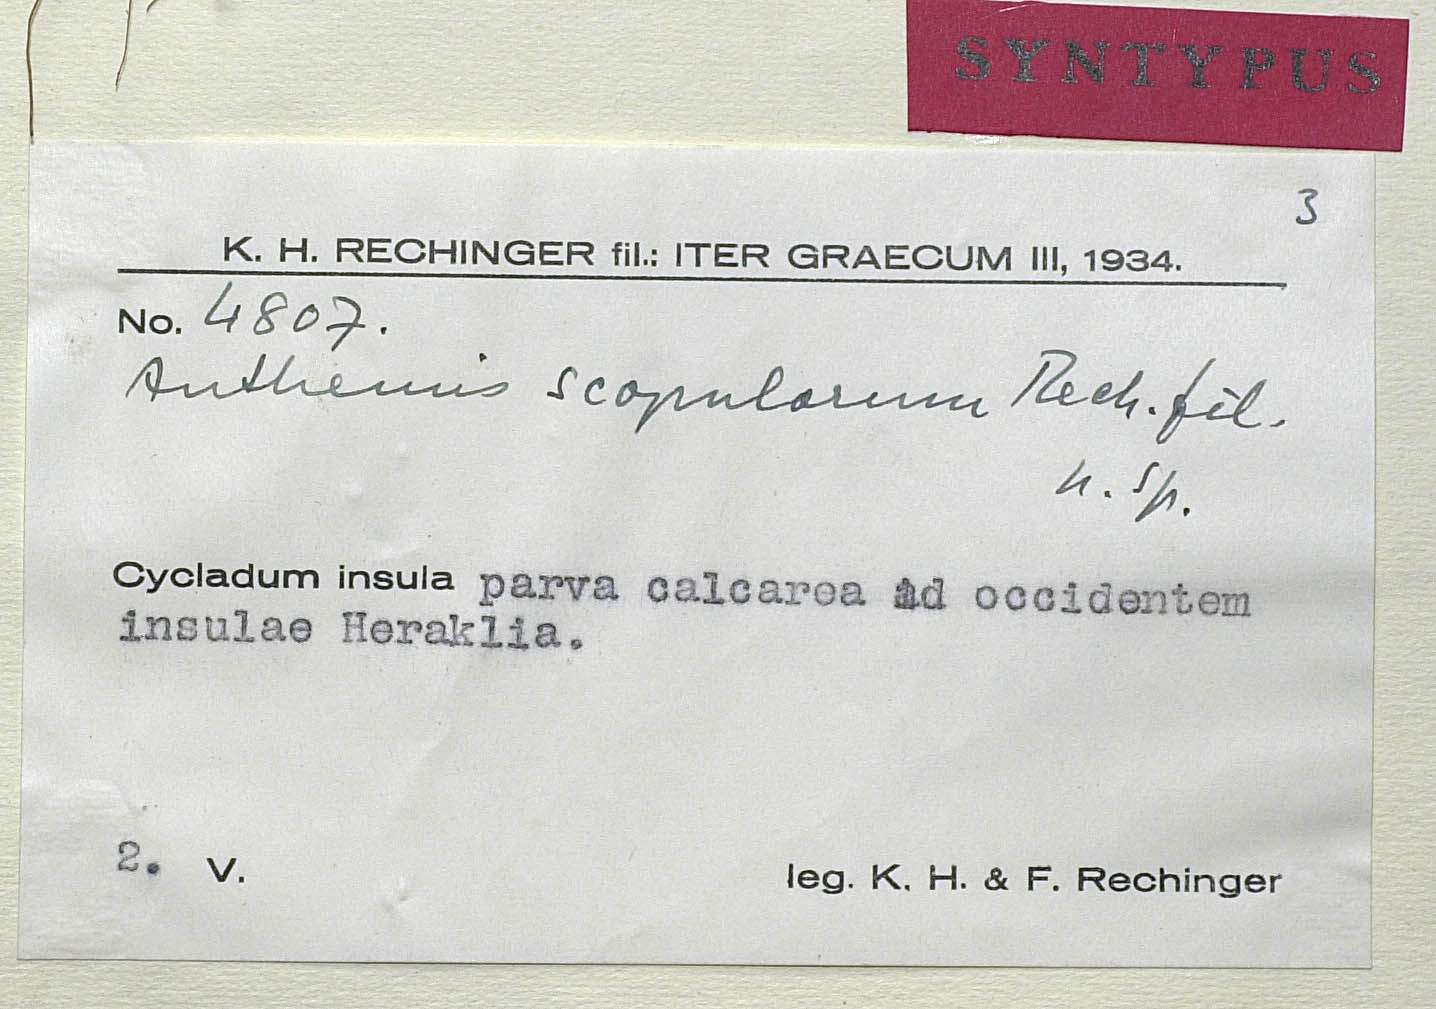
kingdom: Plantae
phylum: Tracheophyta
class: Magnoliopsida
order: Asterales
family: Asteraceae
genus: Anthemis
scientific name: Anthemis scopulorum
